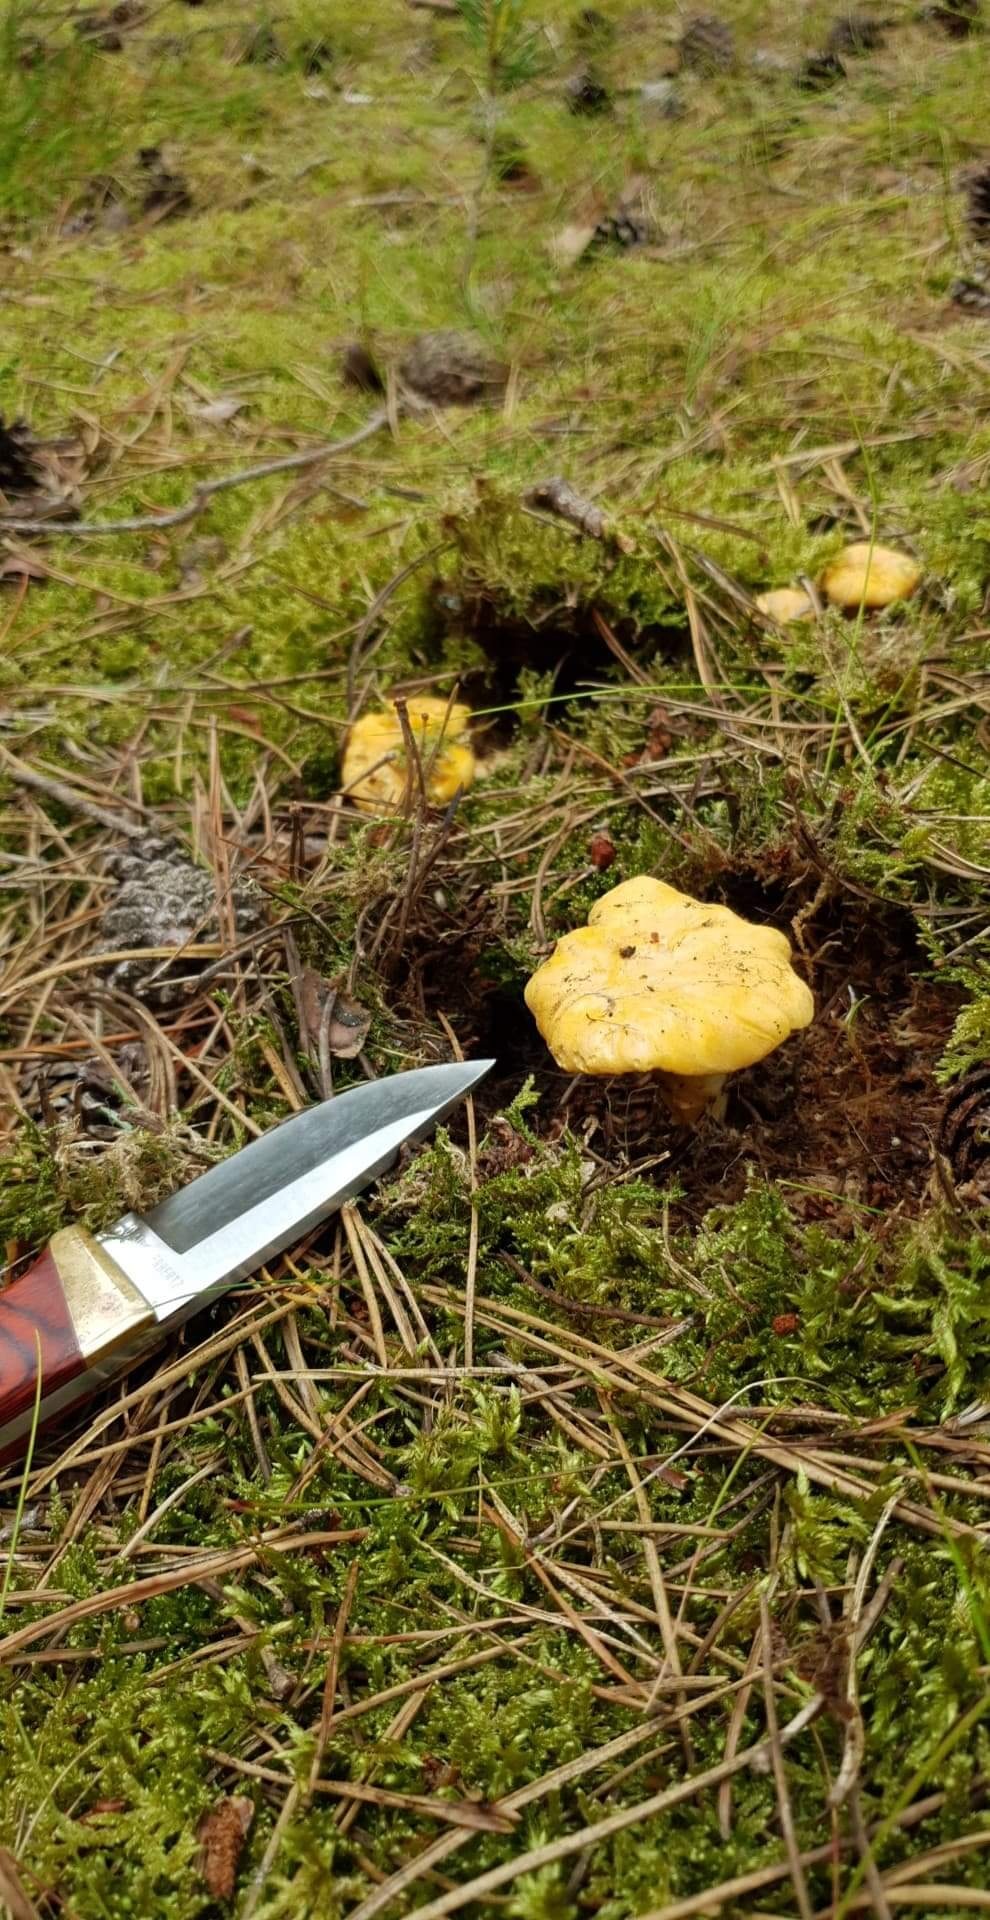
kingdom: Fungi
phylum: Basidiomycota
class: Agaricomycetes
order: Cantharellales
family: Hydnaceae
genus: Cantharellus
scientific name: Cantharellus cibarius
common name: almindelig kantarel
